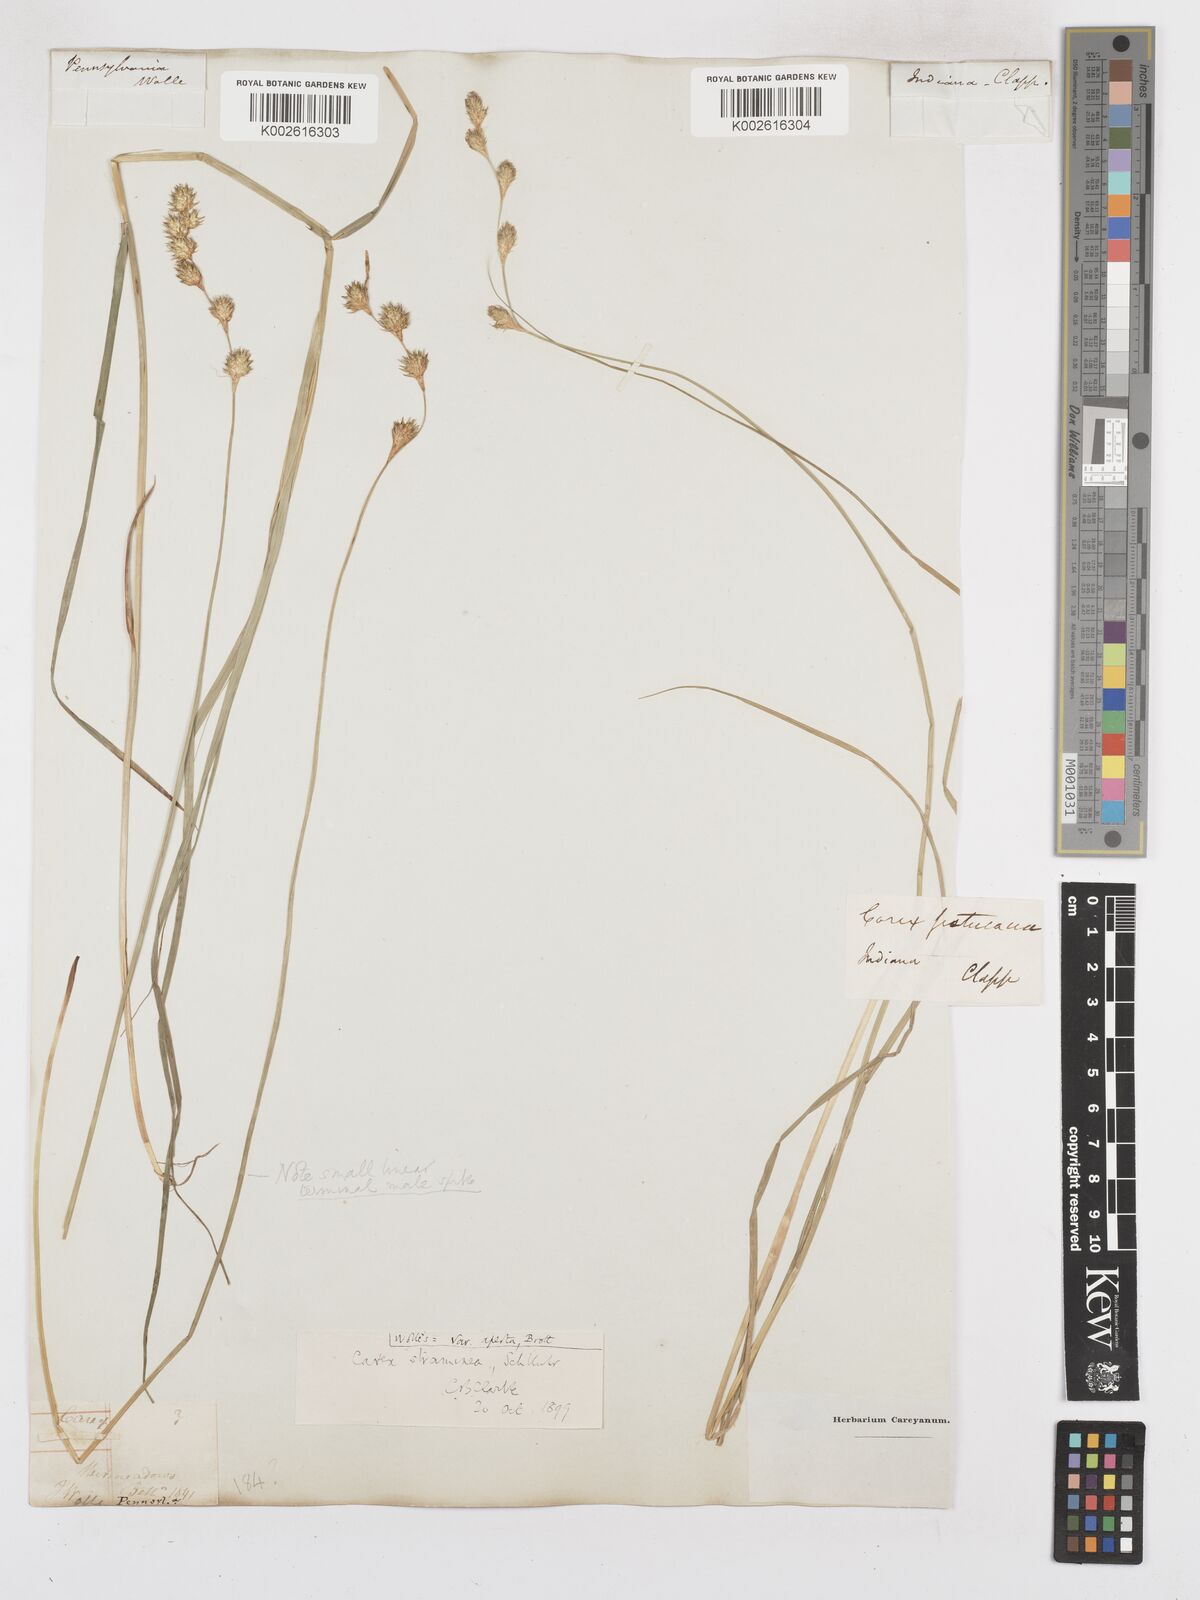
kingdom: Plantae
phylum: Tracheophyta
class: Liliopsida
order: Poales
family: Cyperaceae
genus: Carex
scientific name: Carex albolutescens
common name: Freenish white sedge
